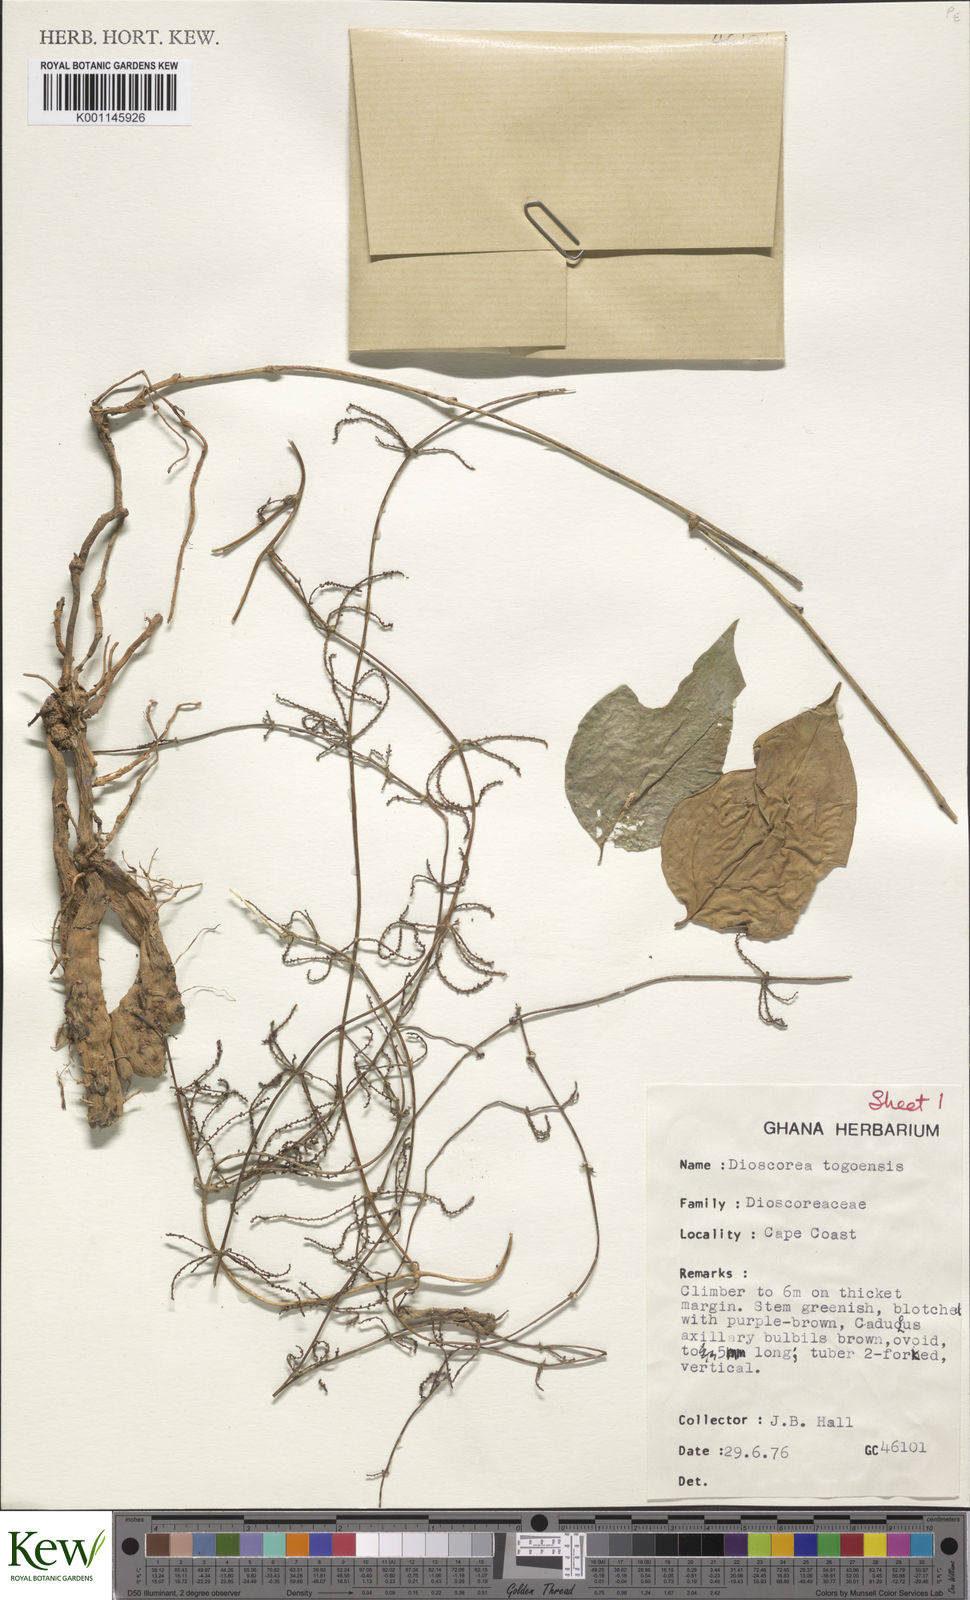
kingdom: Plantae
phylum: Tracheophyta
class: Liliopsida
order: Dioscoreales
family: Dioscoreaceae
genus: Dioscorea
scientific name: Dioscorea togoensis
